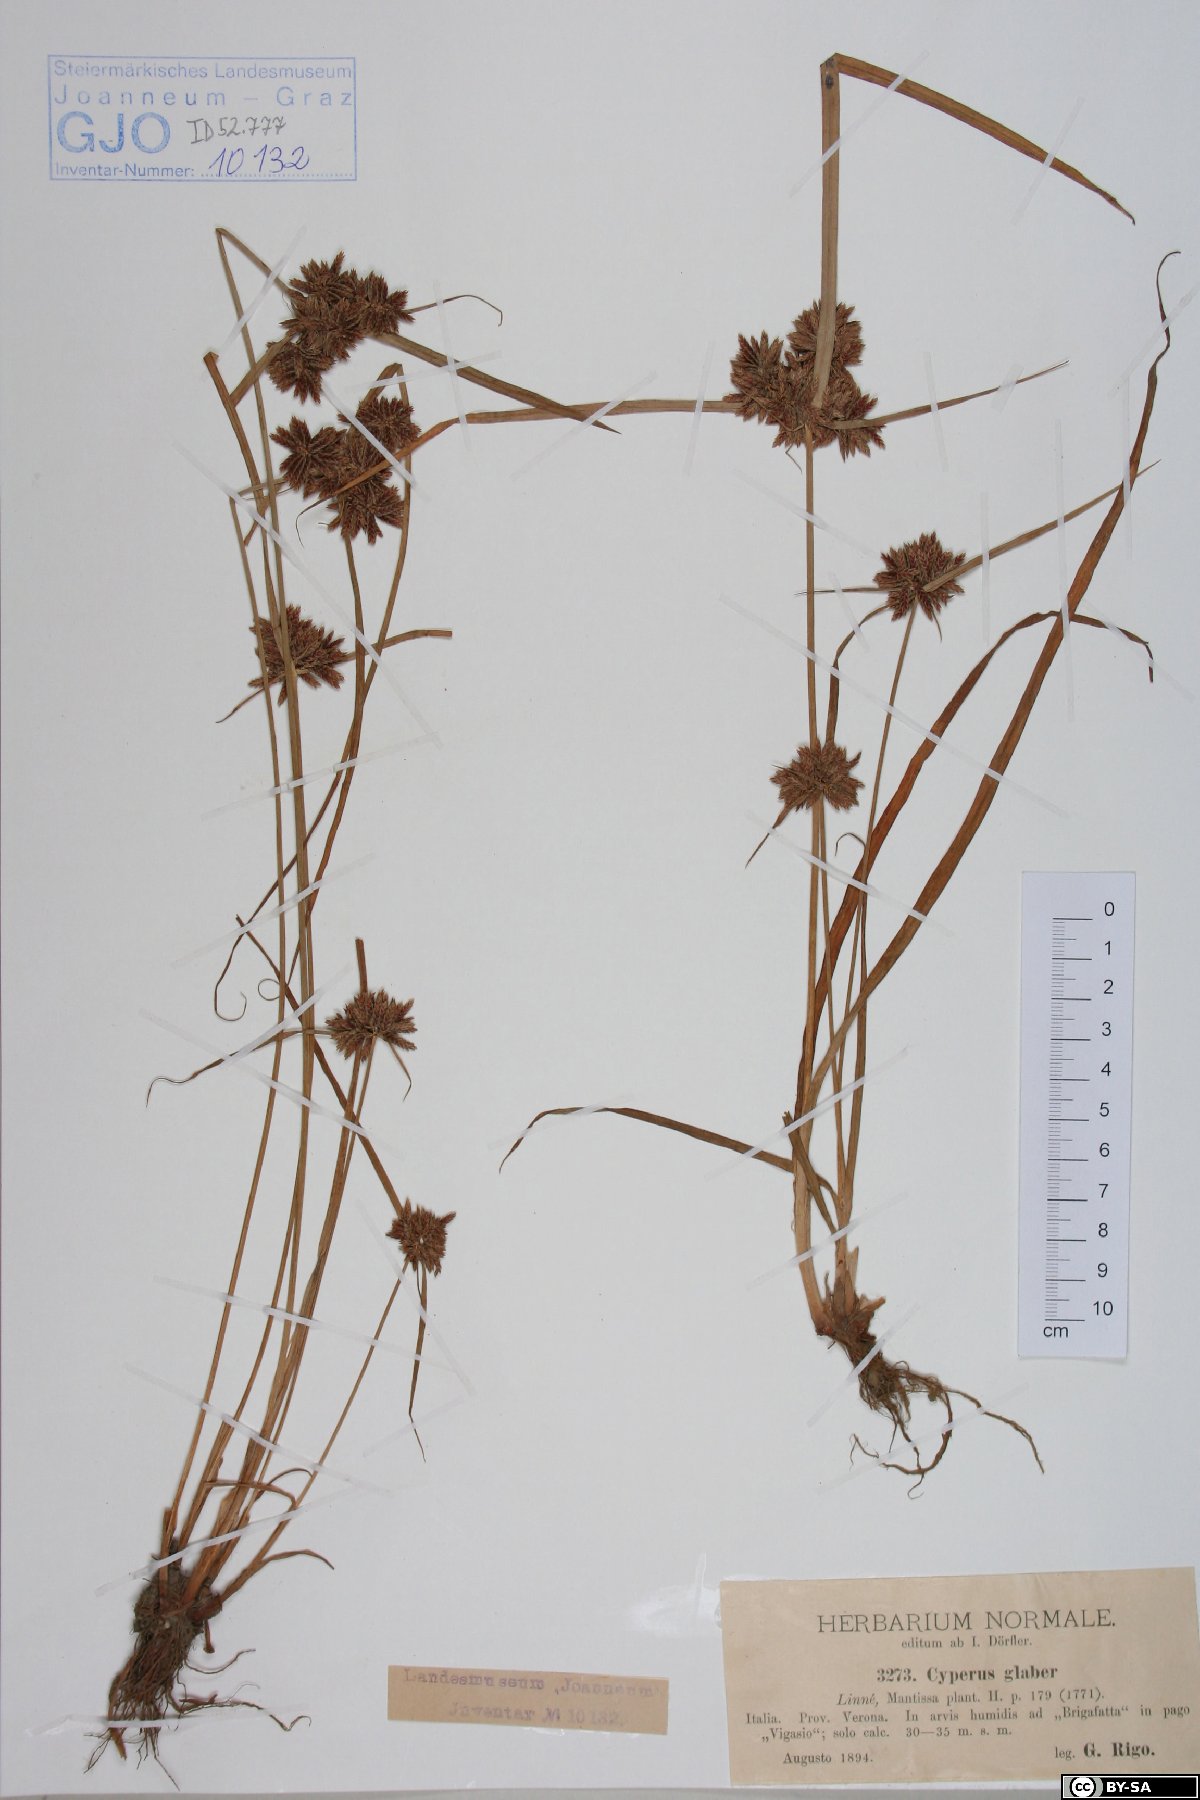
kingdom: Plantae
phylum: Tracheophyta
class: Liliopsida
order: Poales
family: Cyperaceae
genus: Cyperus
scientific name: Cyperus glaber
